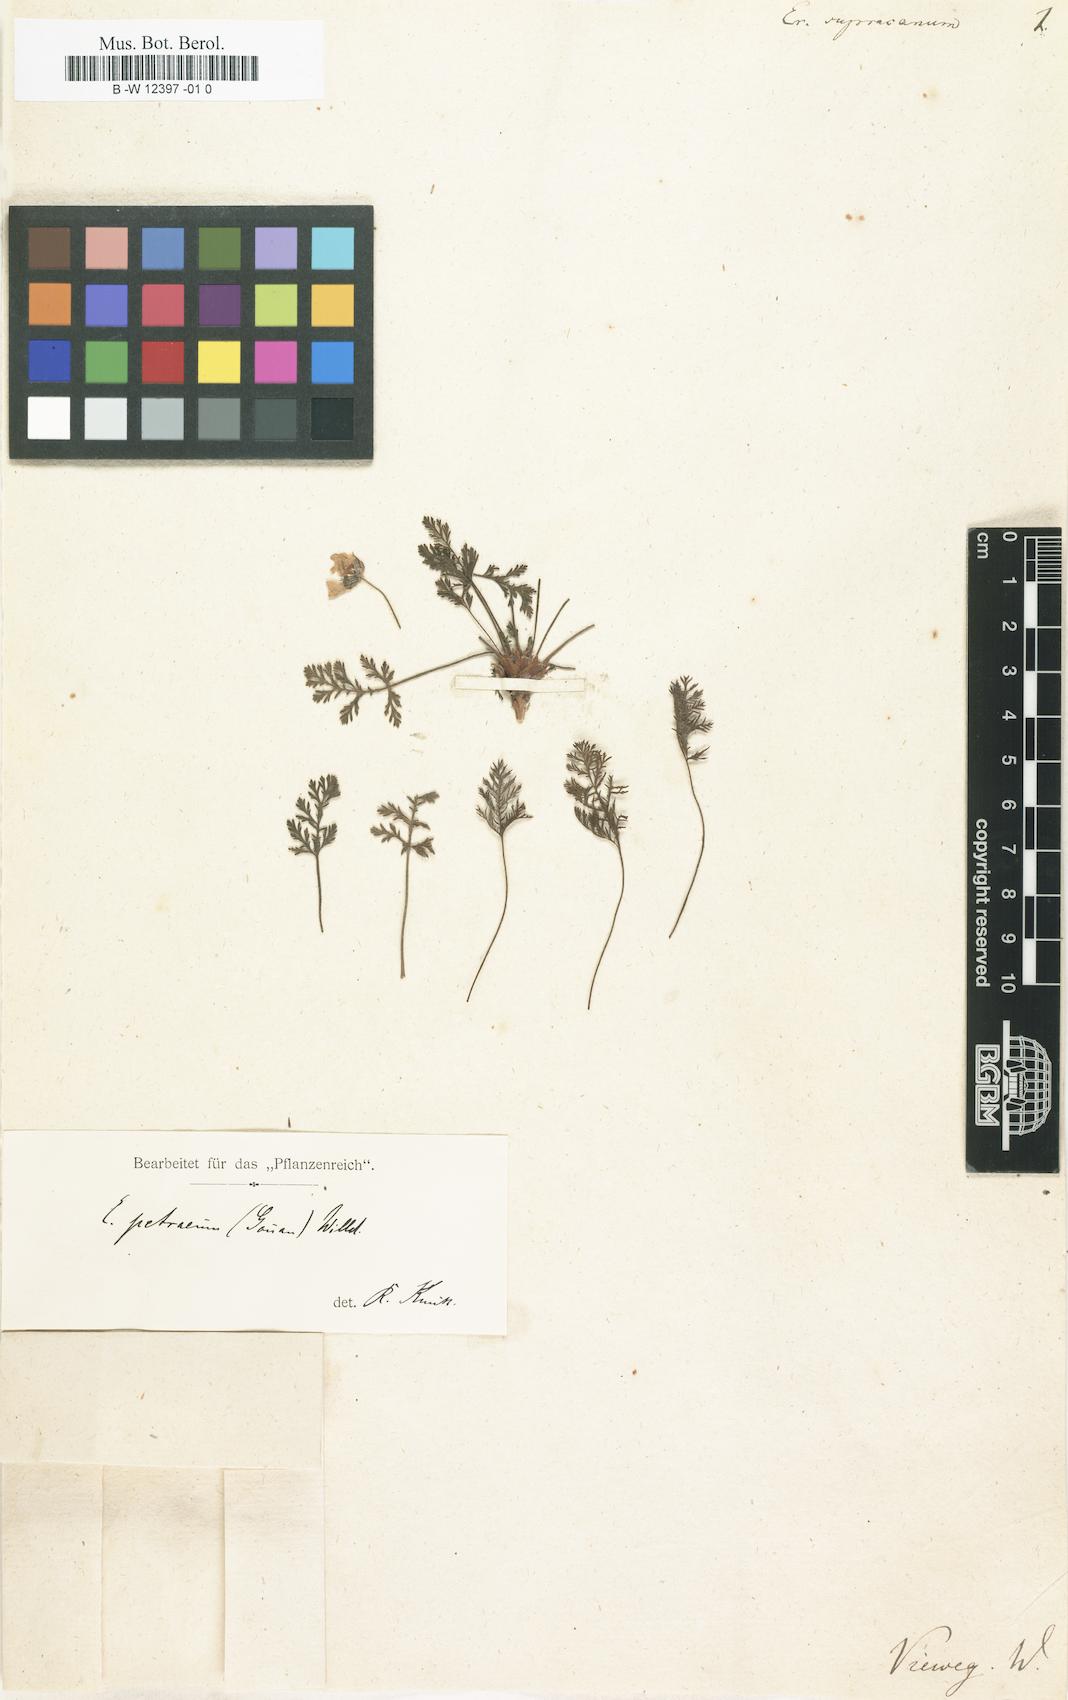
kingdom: Plantae
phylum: Tracheophyta
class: Magnoliopsida
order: Geraniales
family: Geraniaceae
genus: Erodium
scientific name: Erodium rupestre
